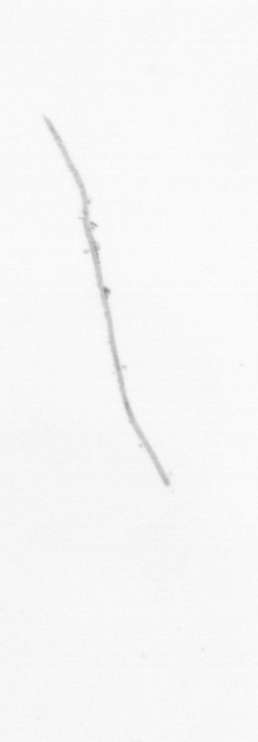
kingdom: Chromista
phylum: Ochrophyta
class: Bacillariophyceae
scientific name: Bacillariophyceae
